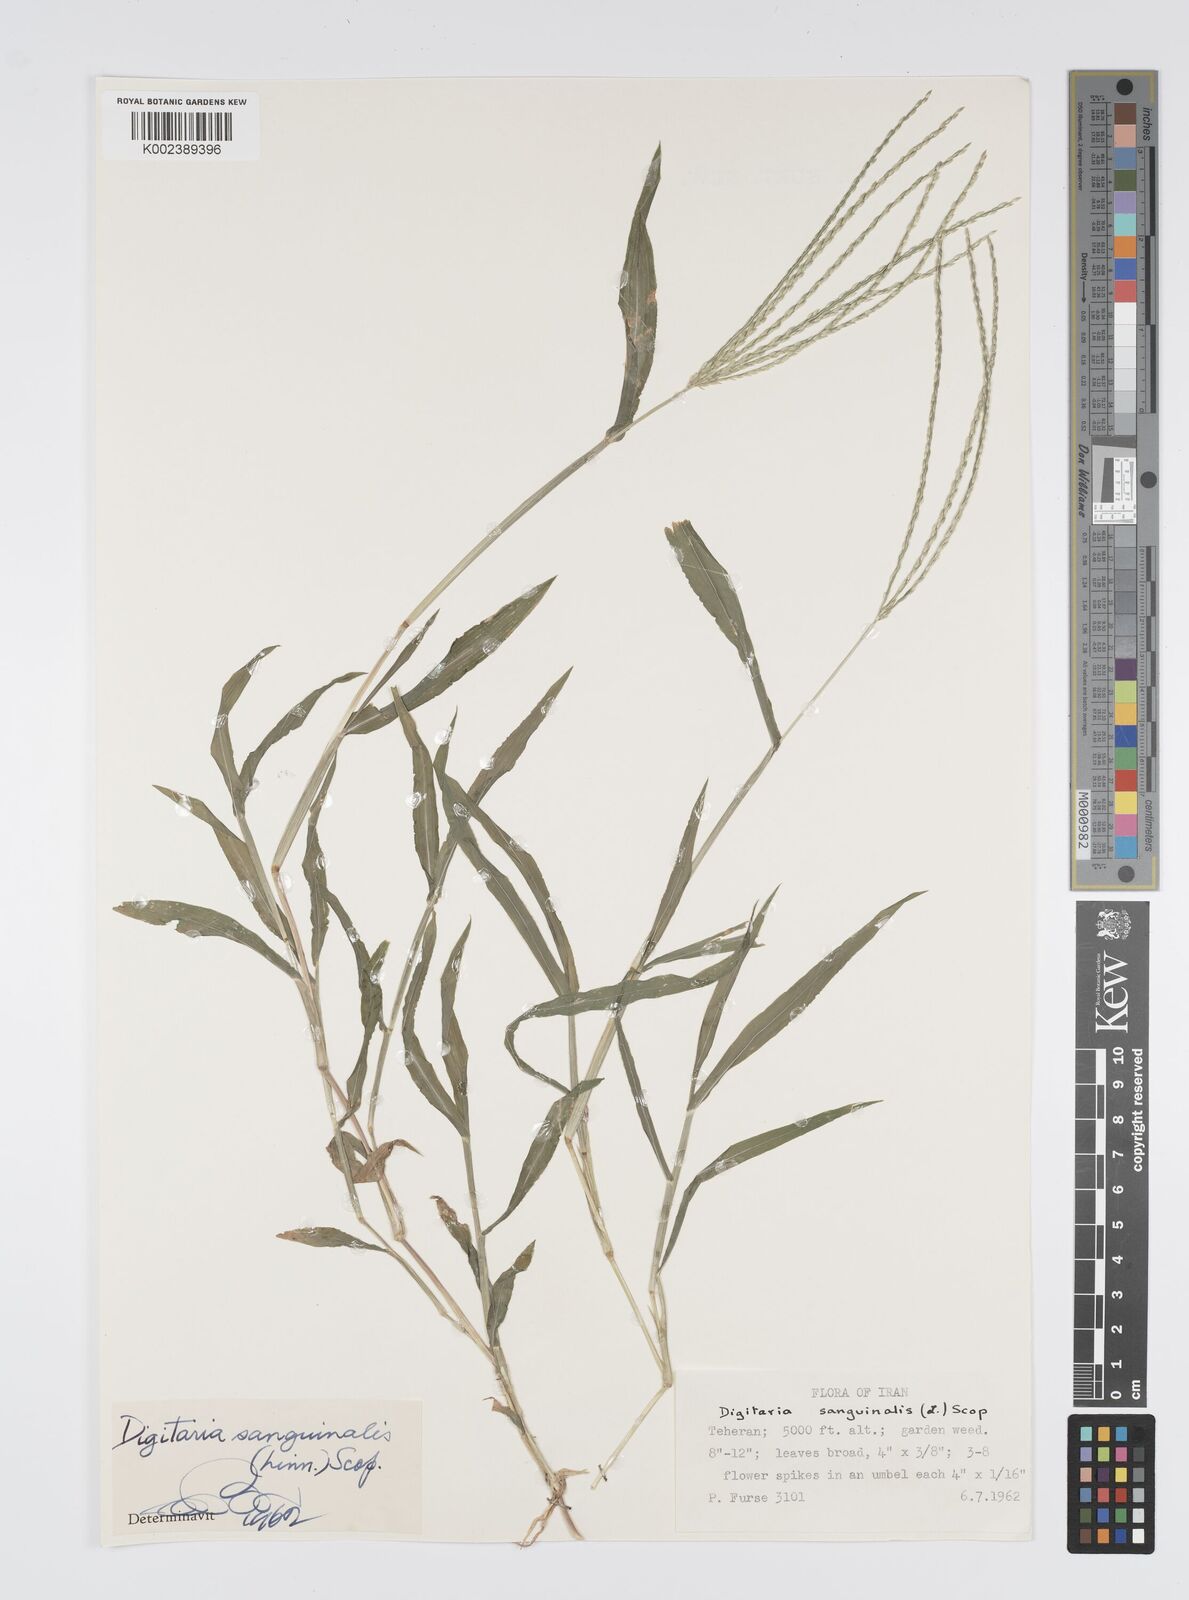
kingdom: Plantae
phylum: Tracheophyta
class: Liliopsida
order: Poales
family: Poaceae
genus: Digitaria
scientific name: Digitaria sanguinalis
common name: Hairy crabgrass
